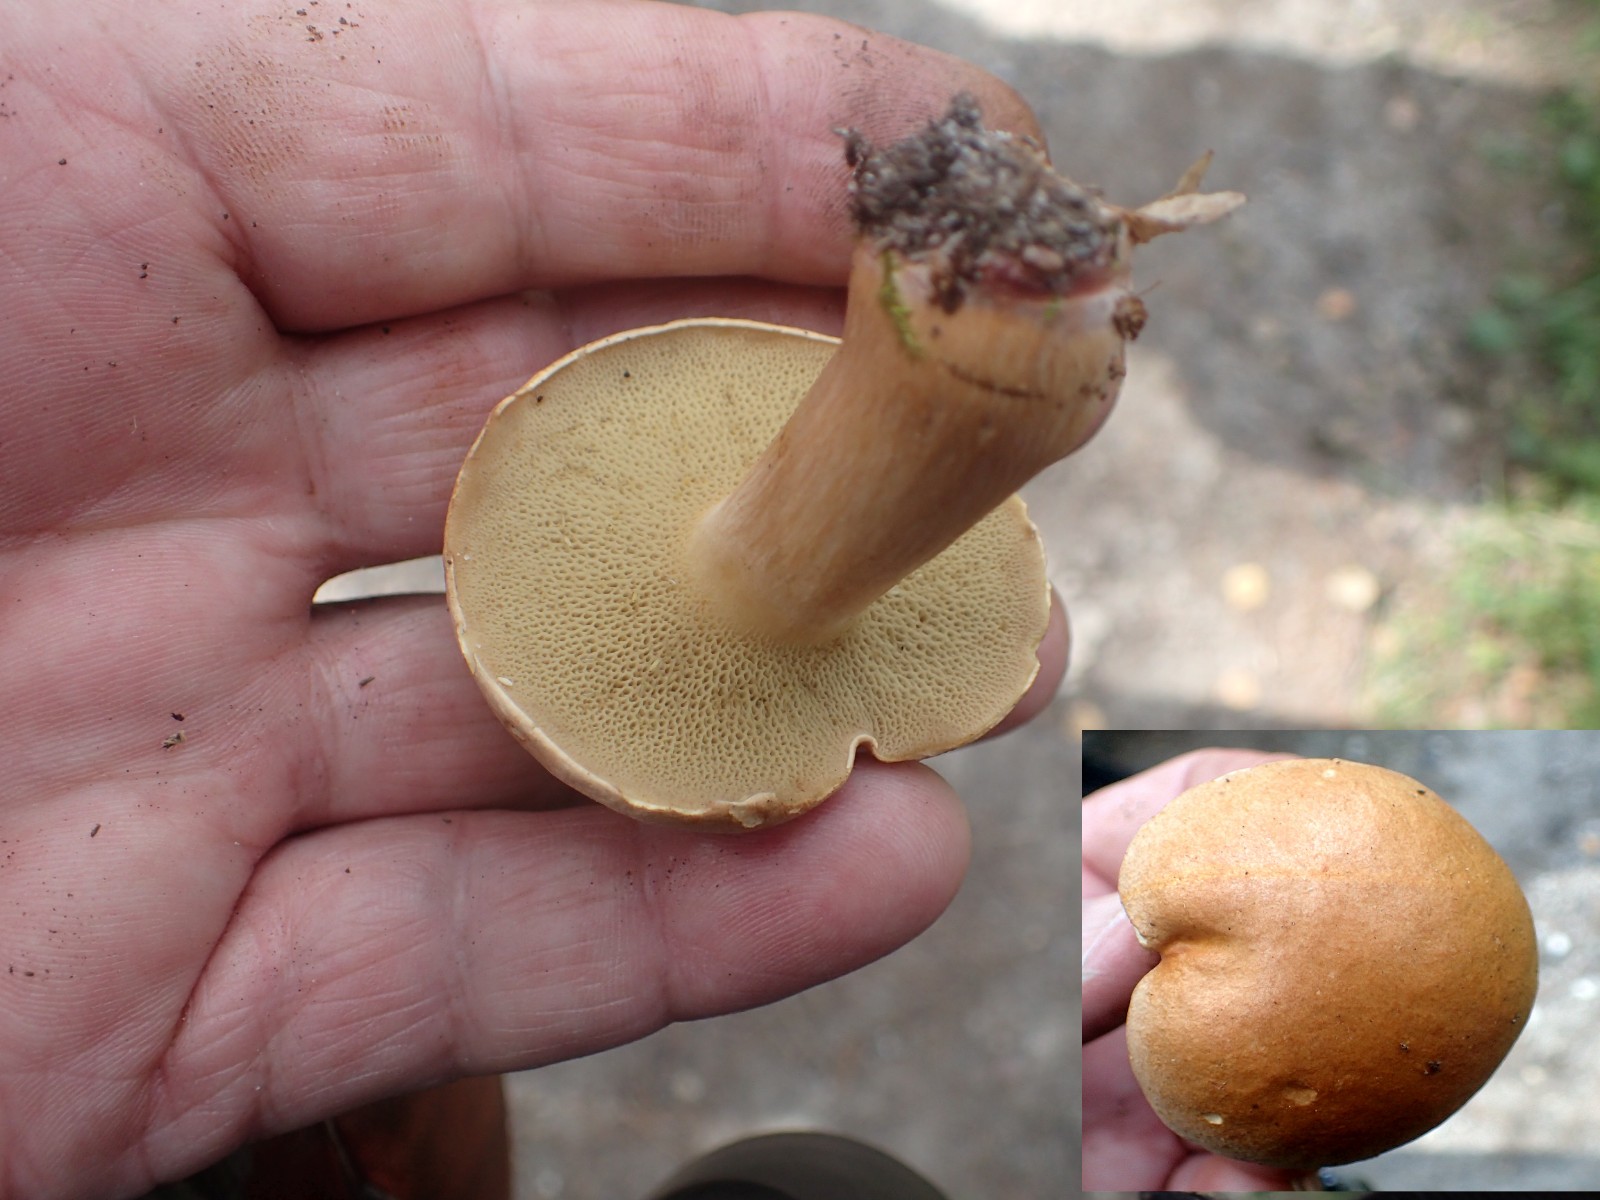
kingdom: Fungi
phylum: Basidiomycota
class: Agaricomycetes
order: Boletales
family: Suillaceae
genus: Suillus
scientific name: Suillus bovinus
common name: grovporet slimrørhat
